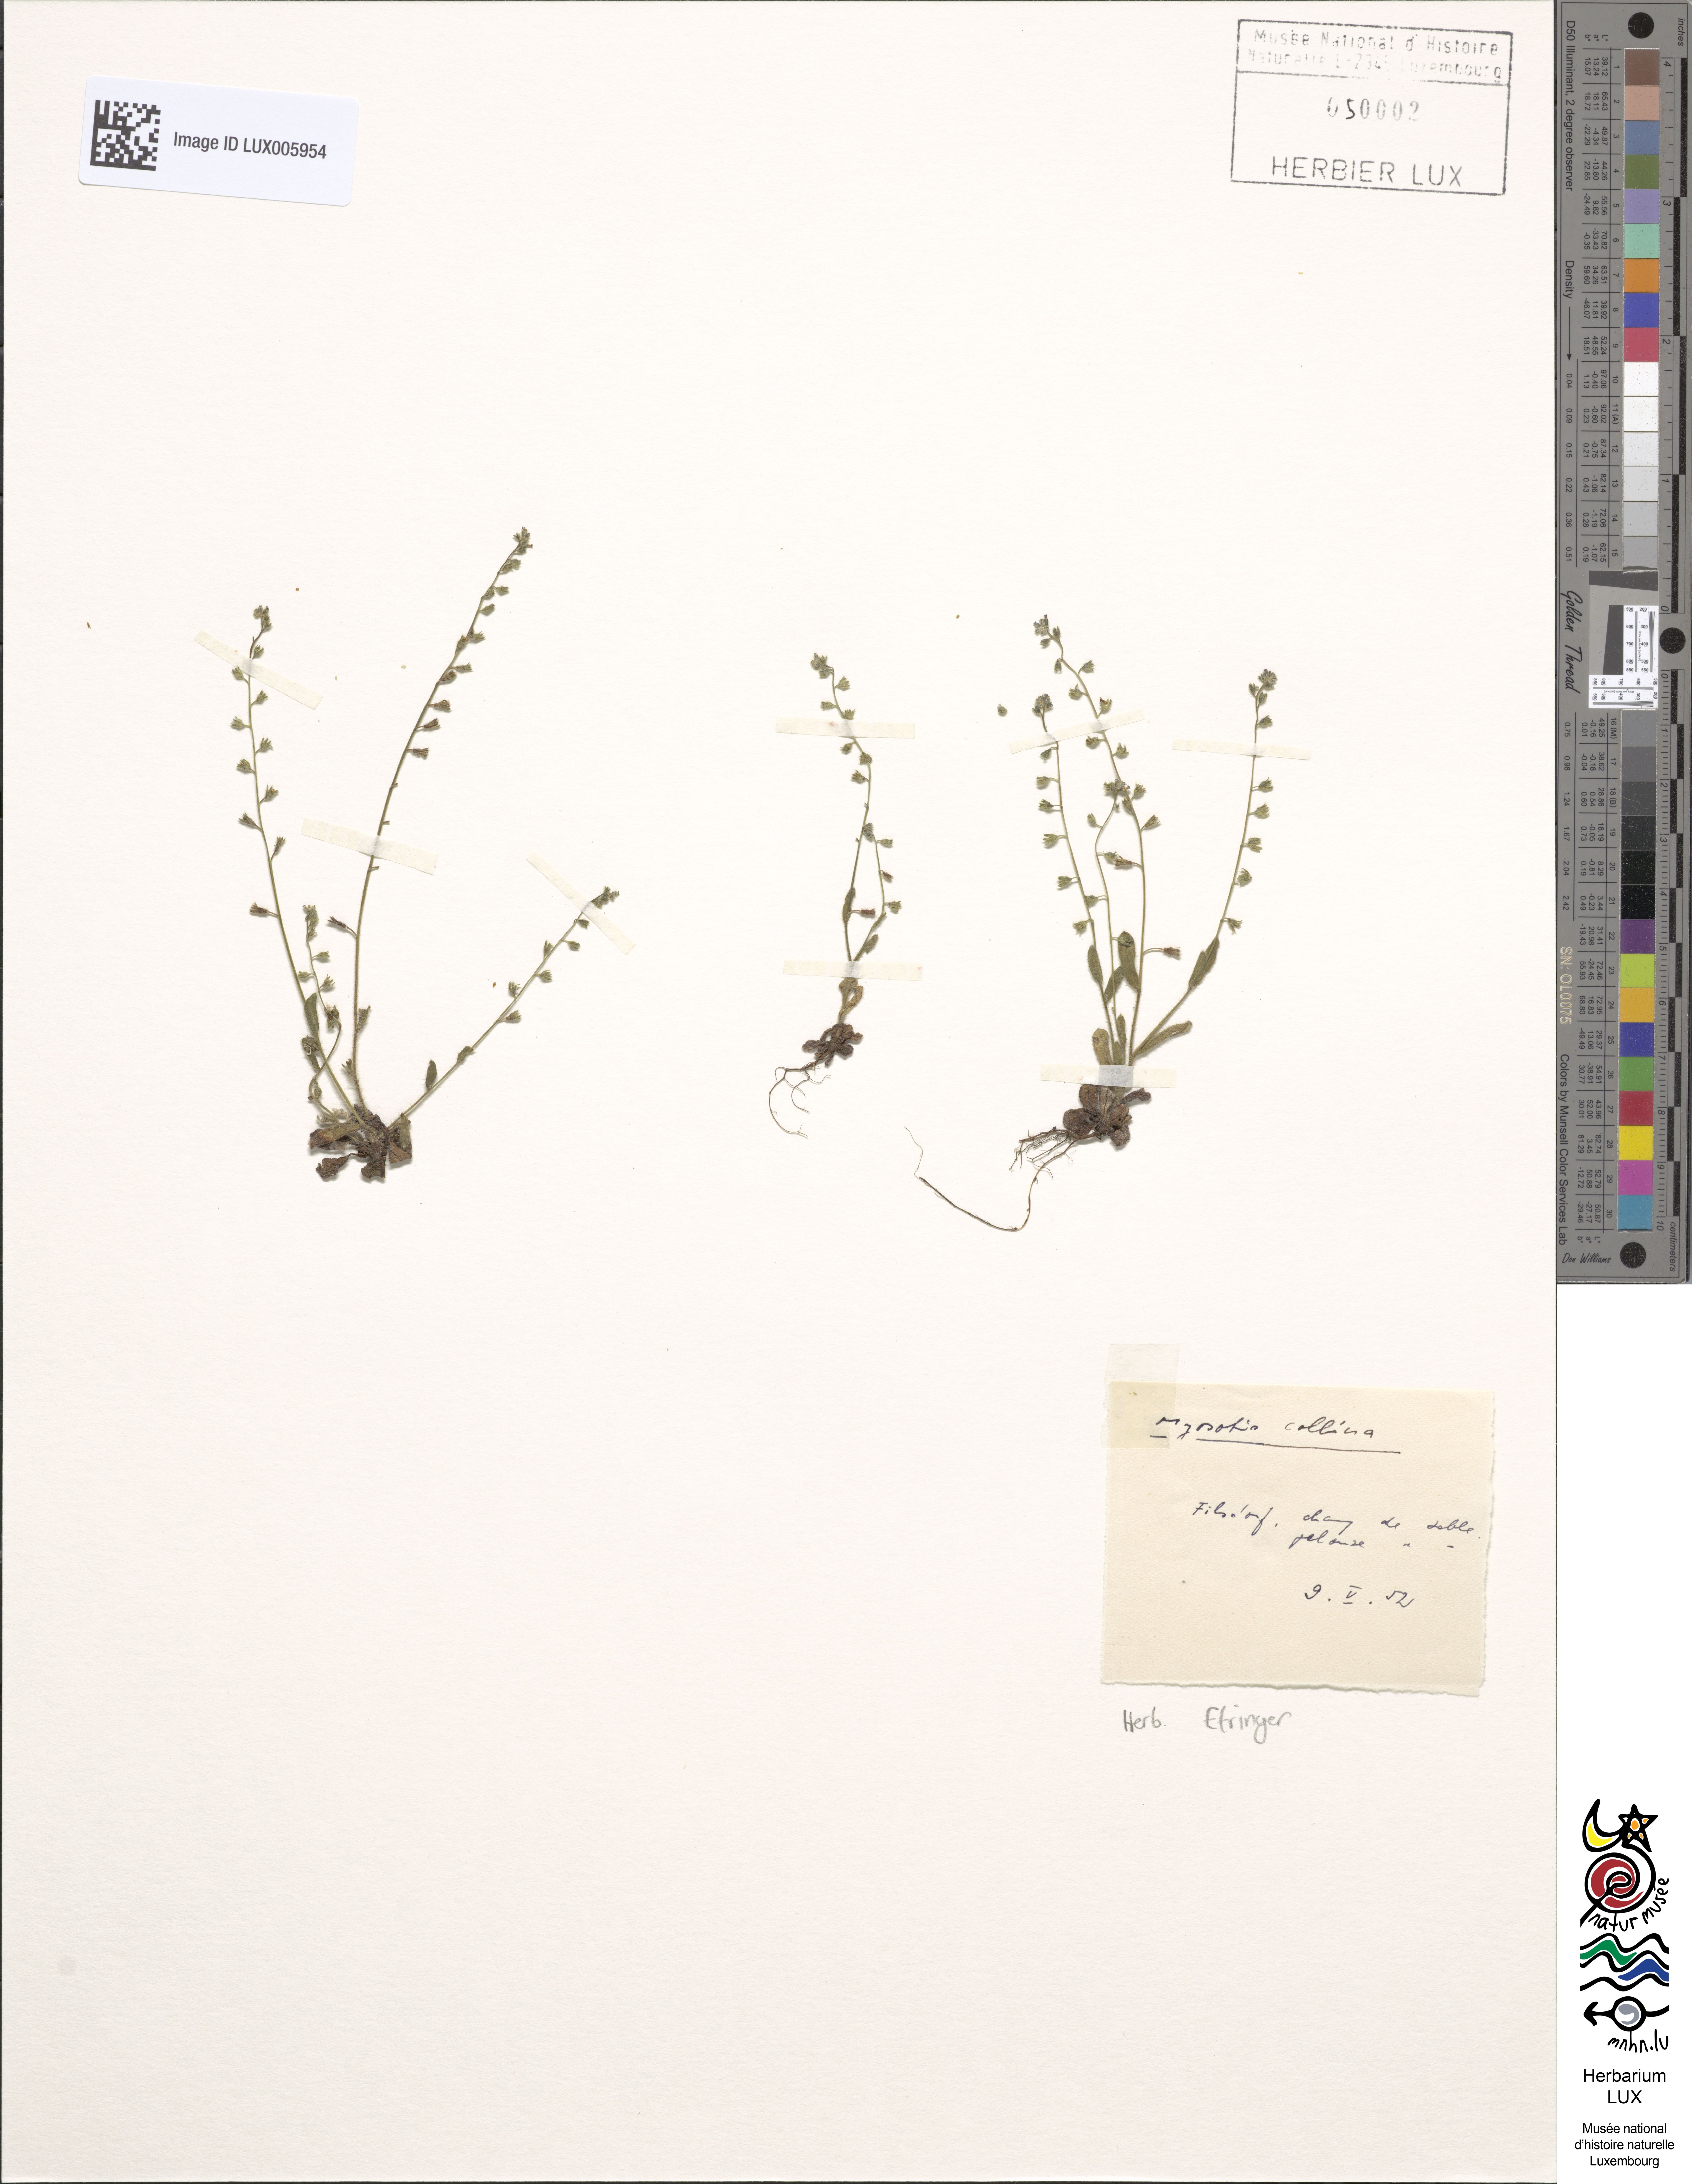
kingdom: Plantae
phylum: Tracheophyta
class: Magnoliopsida
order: Boraginales
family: Boraginaceae
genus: Myosotis
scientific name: Myosotis ramosissima
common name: Early forget-me-not
